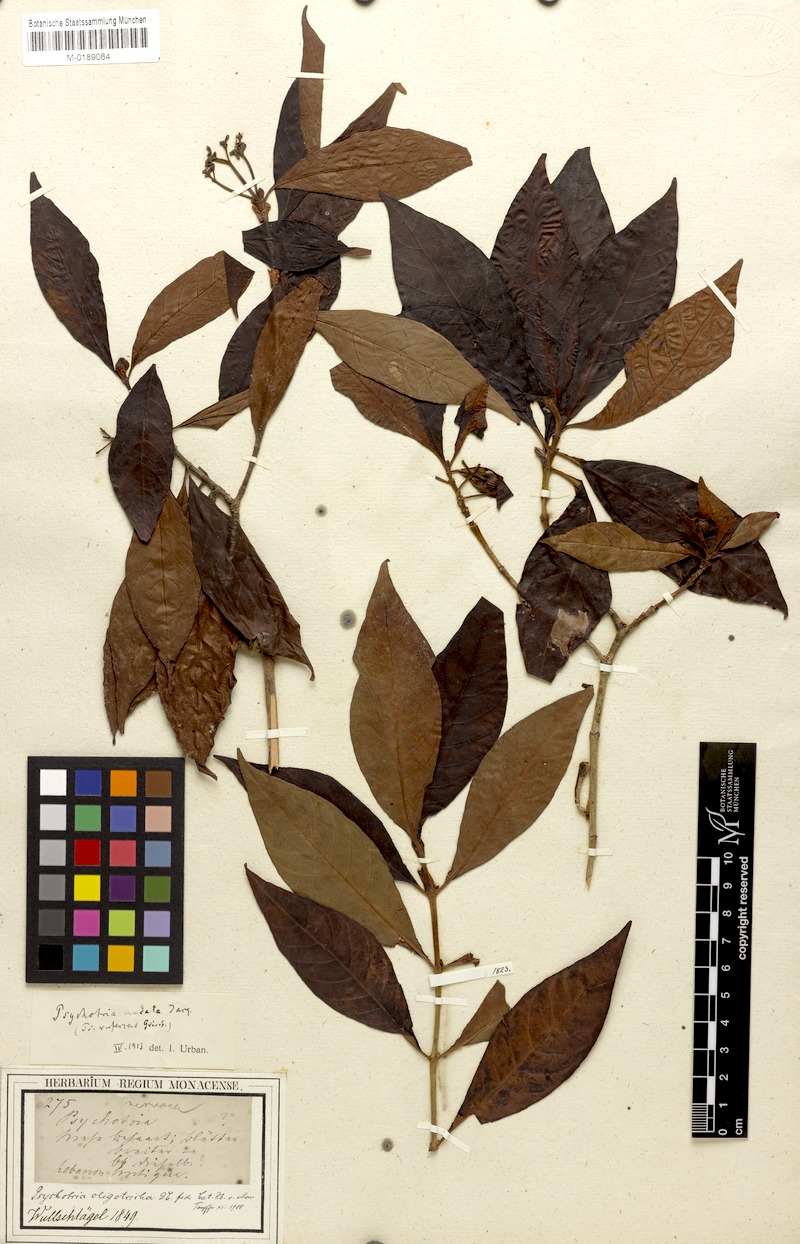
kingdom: Plantae
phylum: Tracheophyta
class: Magnoliopsida
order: Gentianales
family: Rubiaceae
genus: Psychotria
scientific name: Psychotria nervosa
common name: Bastard cankerberry
